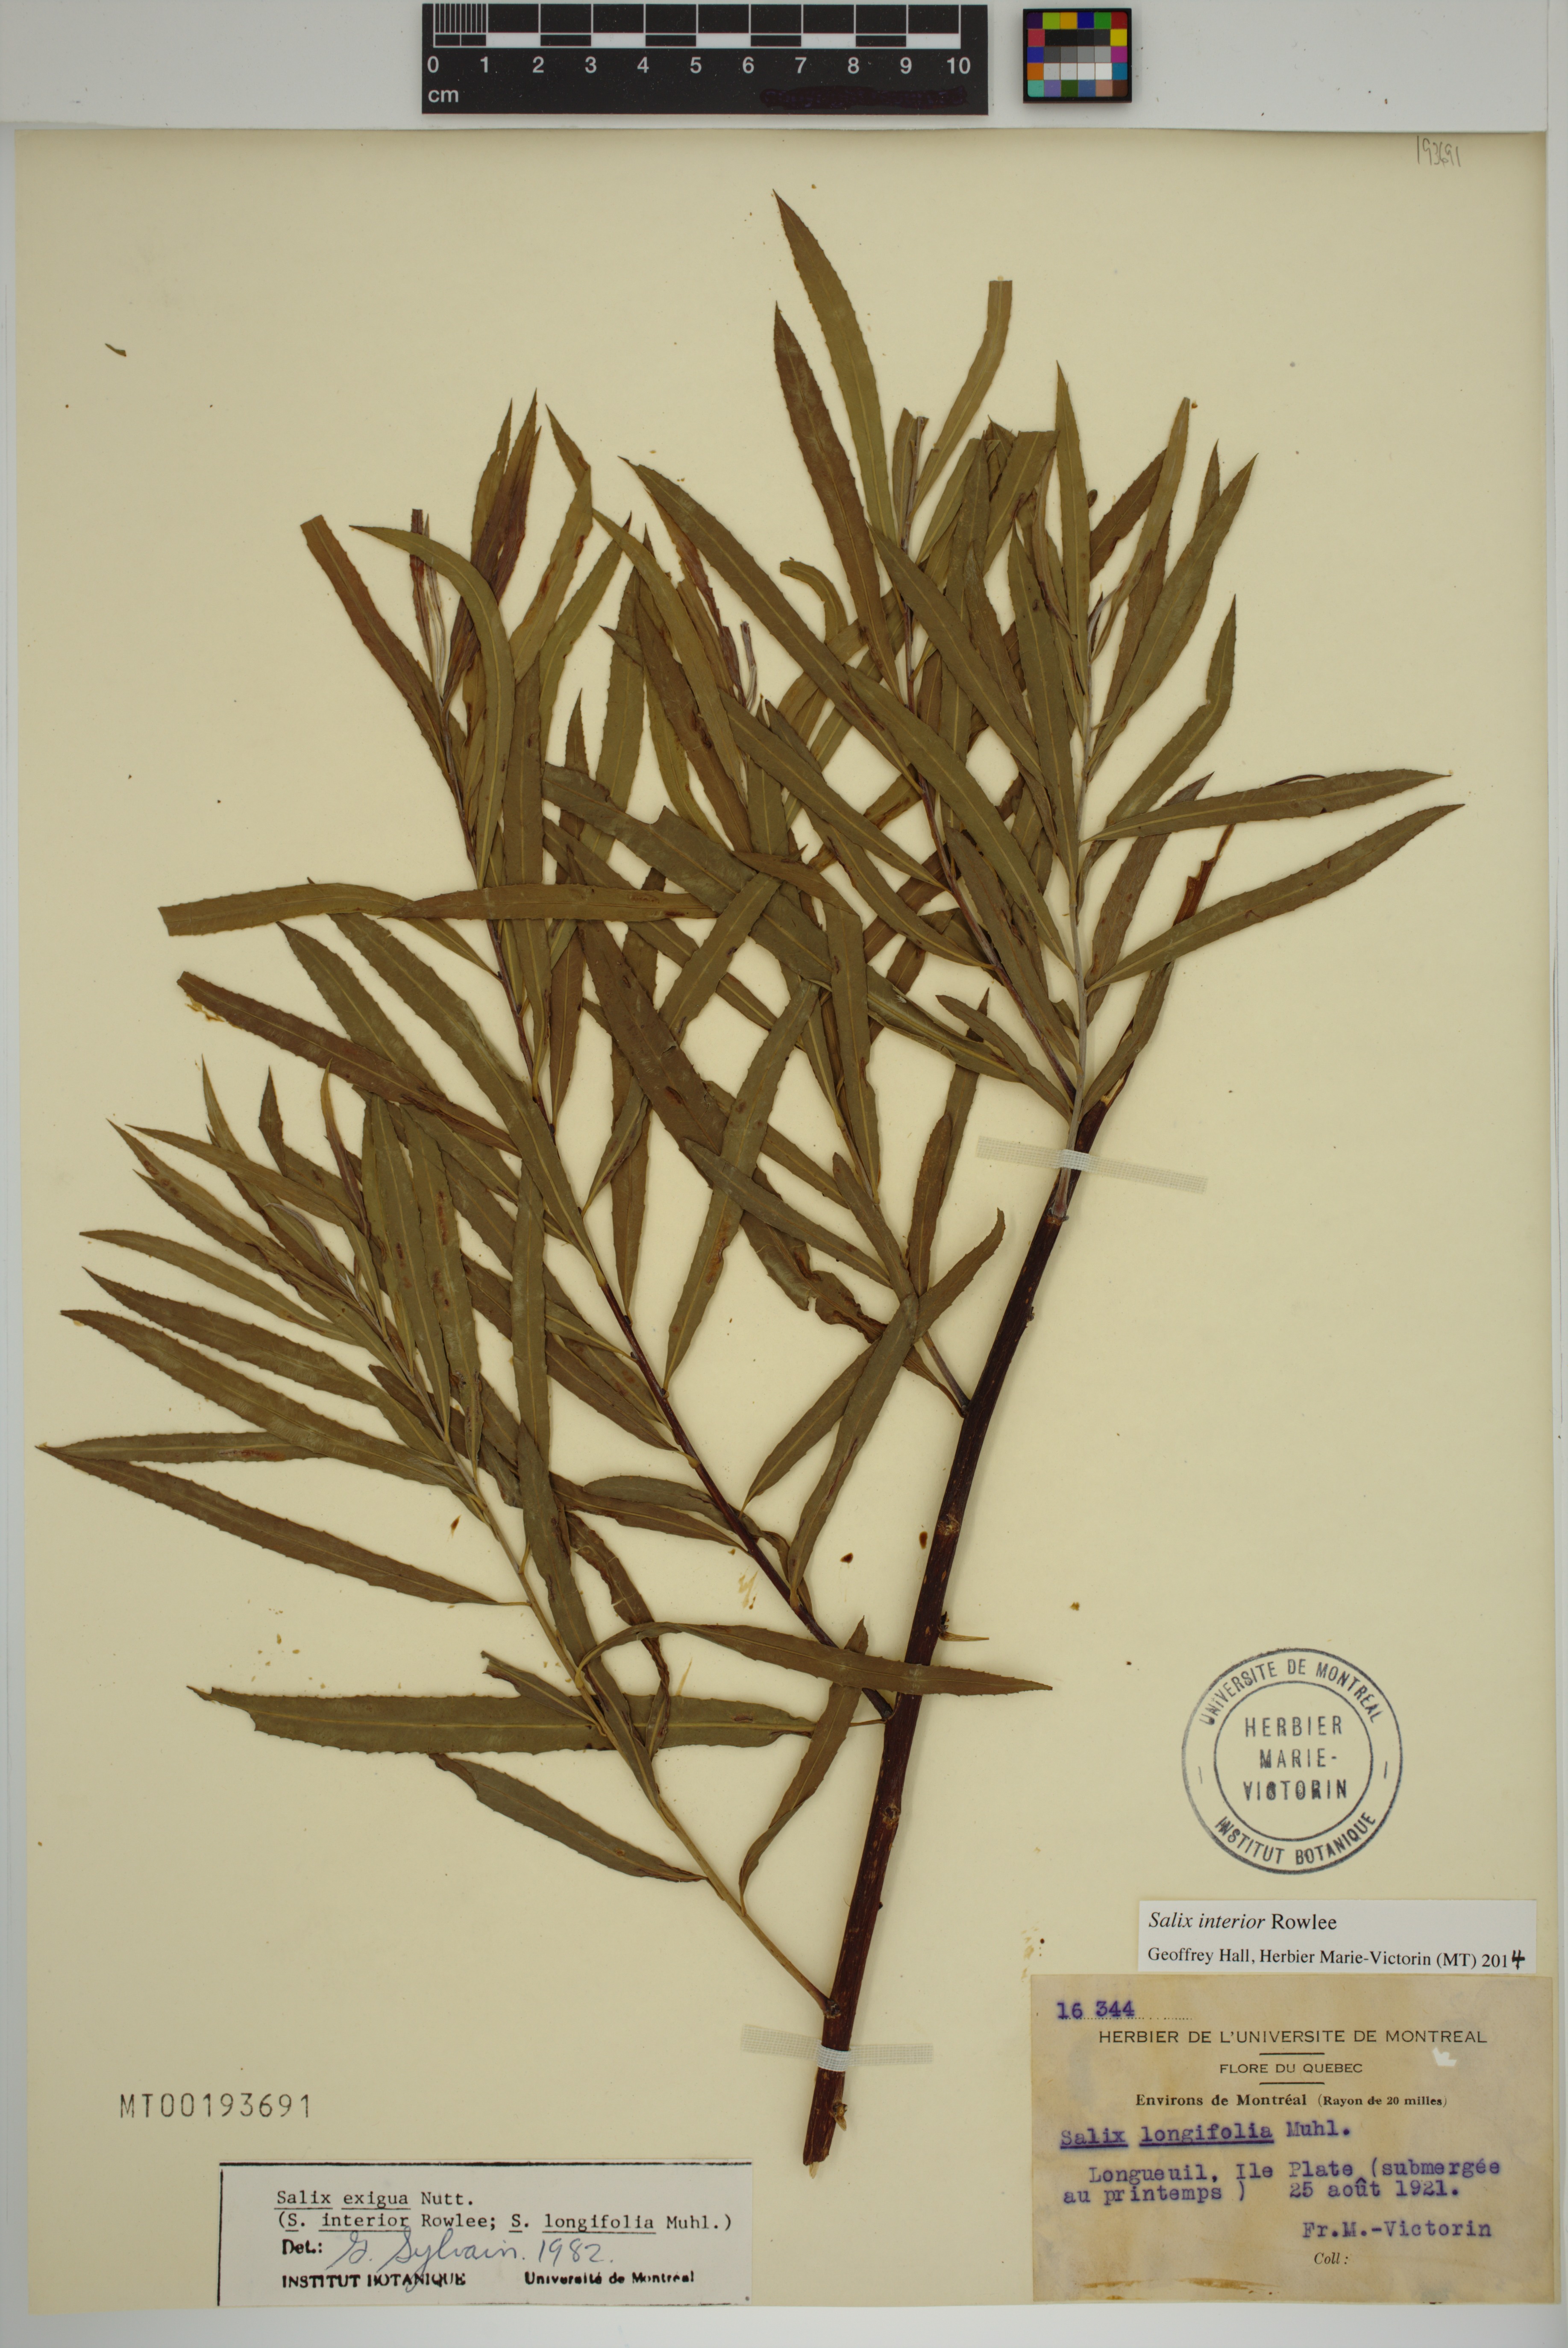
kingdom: Plantae
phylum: Tracheophyta
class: Magnoliopsida
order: Malpighiales
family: Salicaceae
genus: Salix
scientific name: Salix interior
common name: Sandbar willow
